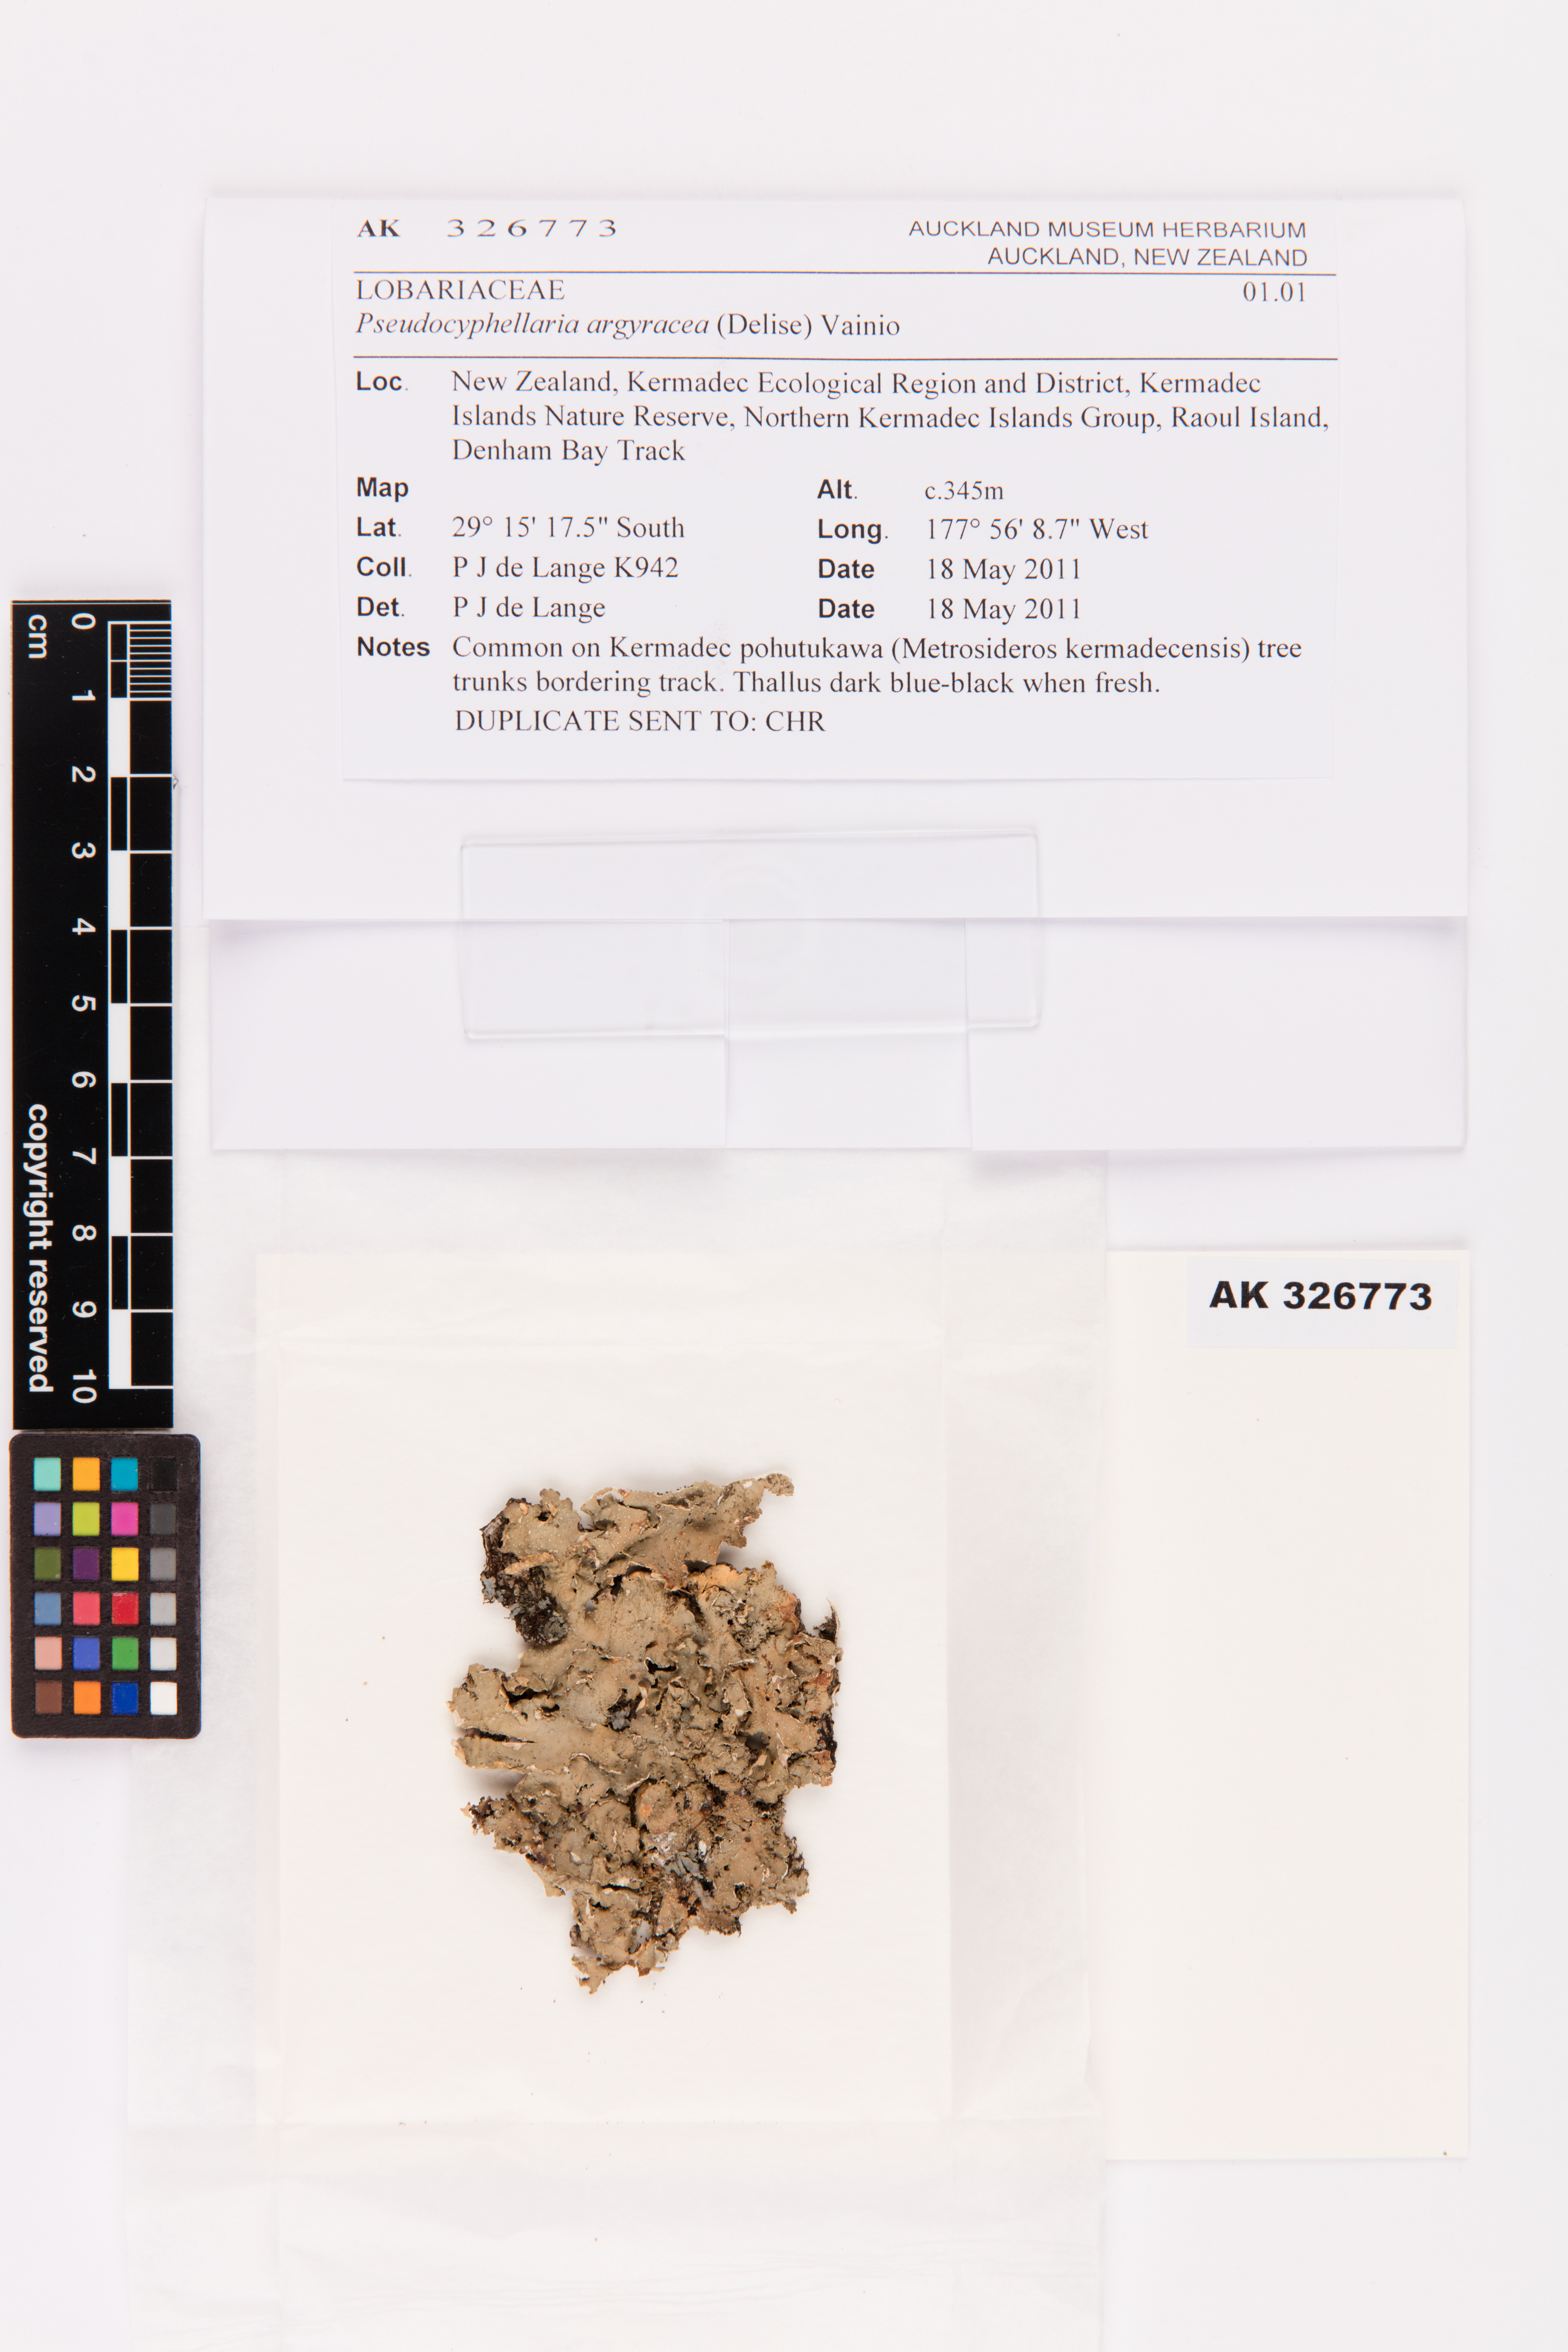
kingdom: Fungi
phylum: Ascomycota
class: Lecanoromycetes
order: Peltigerales
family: Lobariaceae
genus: Pseudocyphellaria
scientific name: Pseudocyphellaria argyracea
